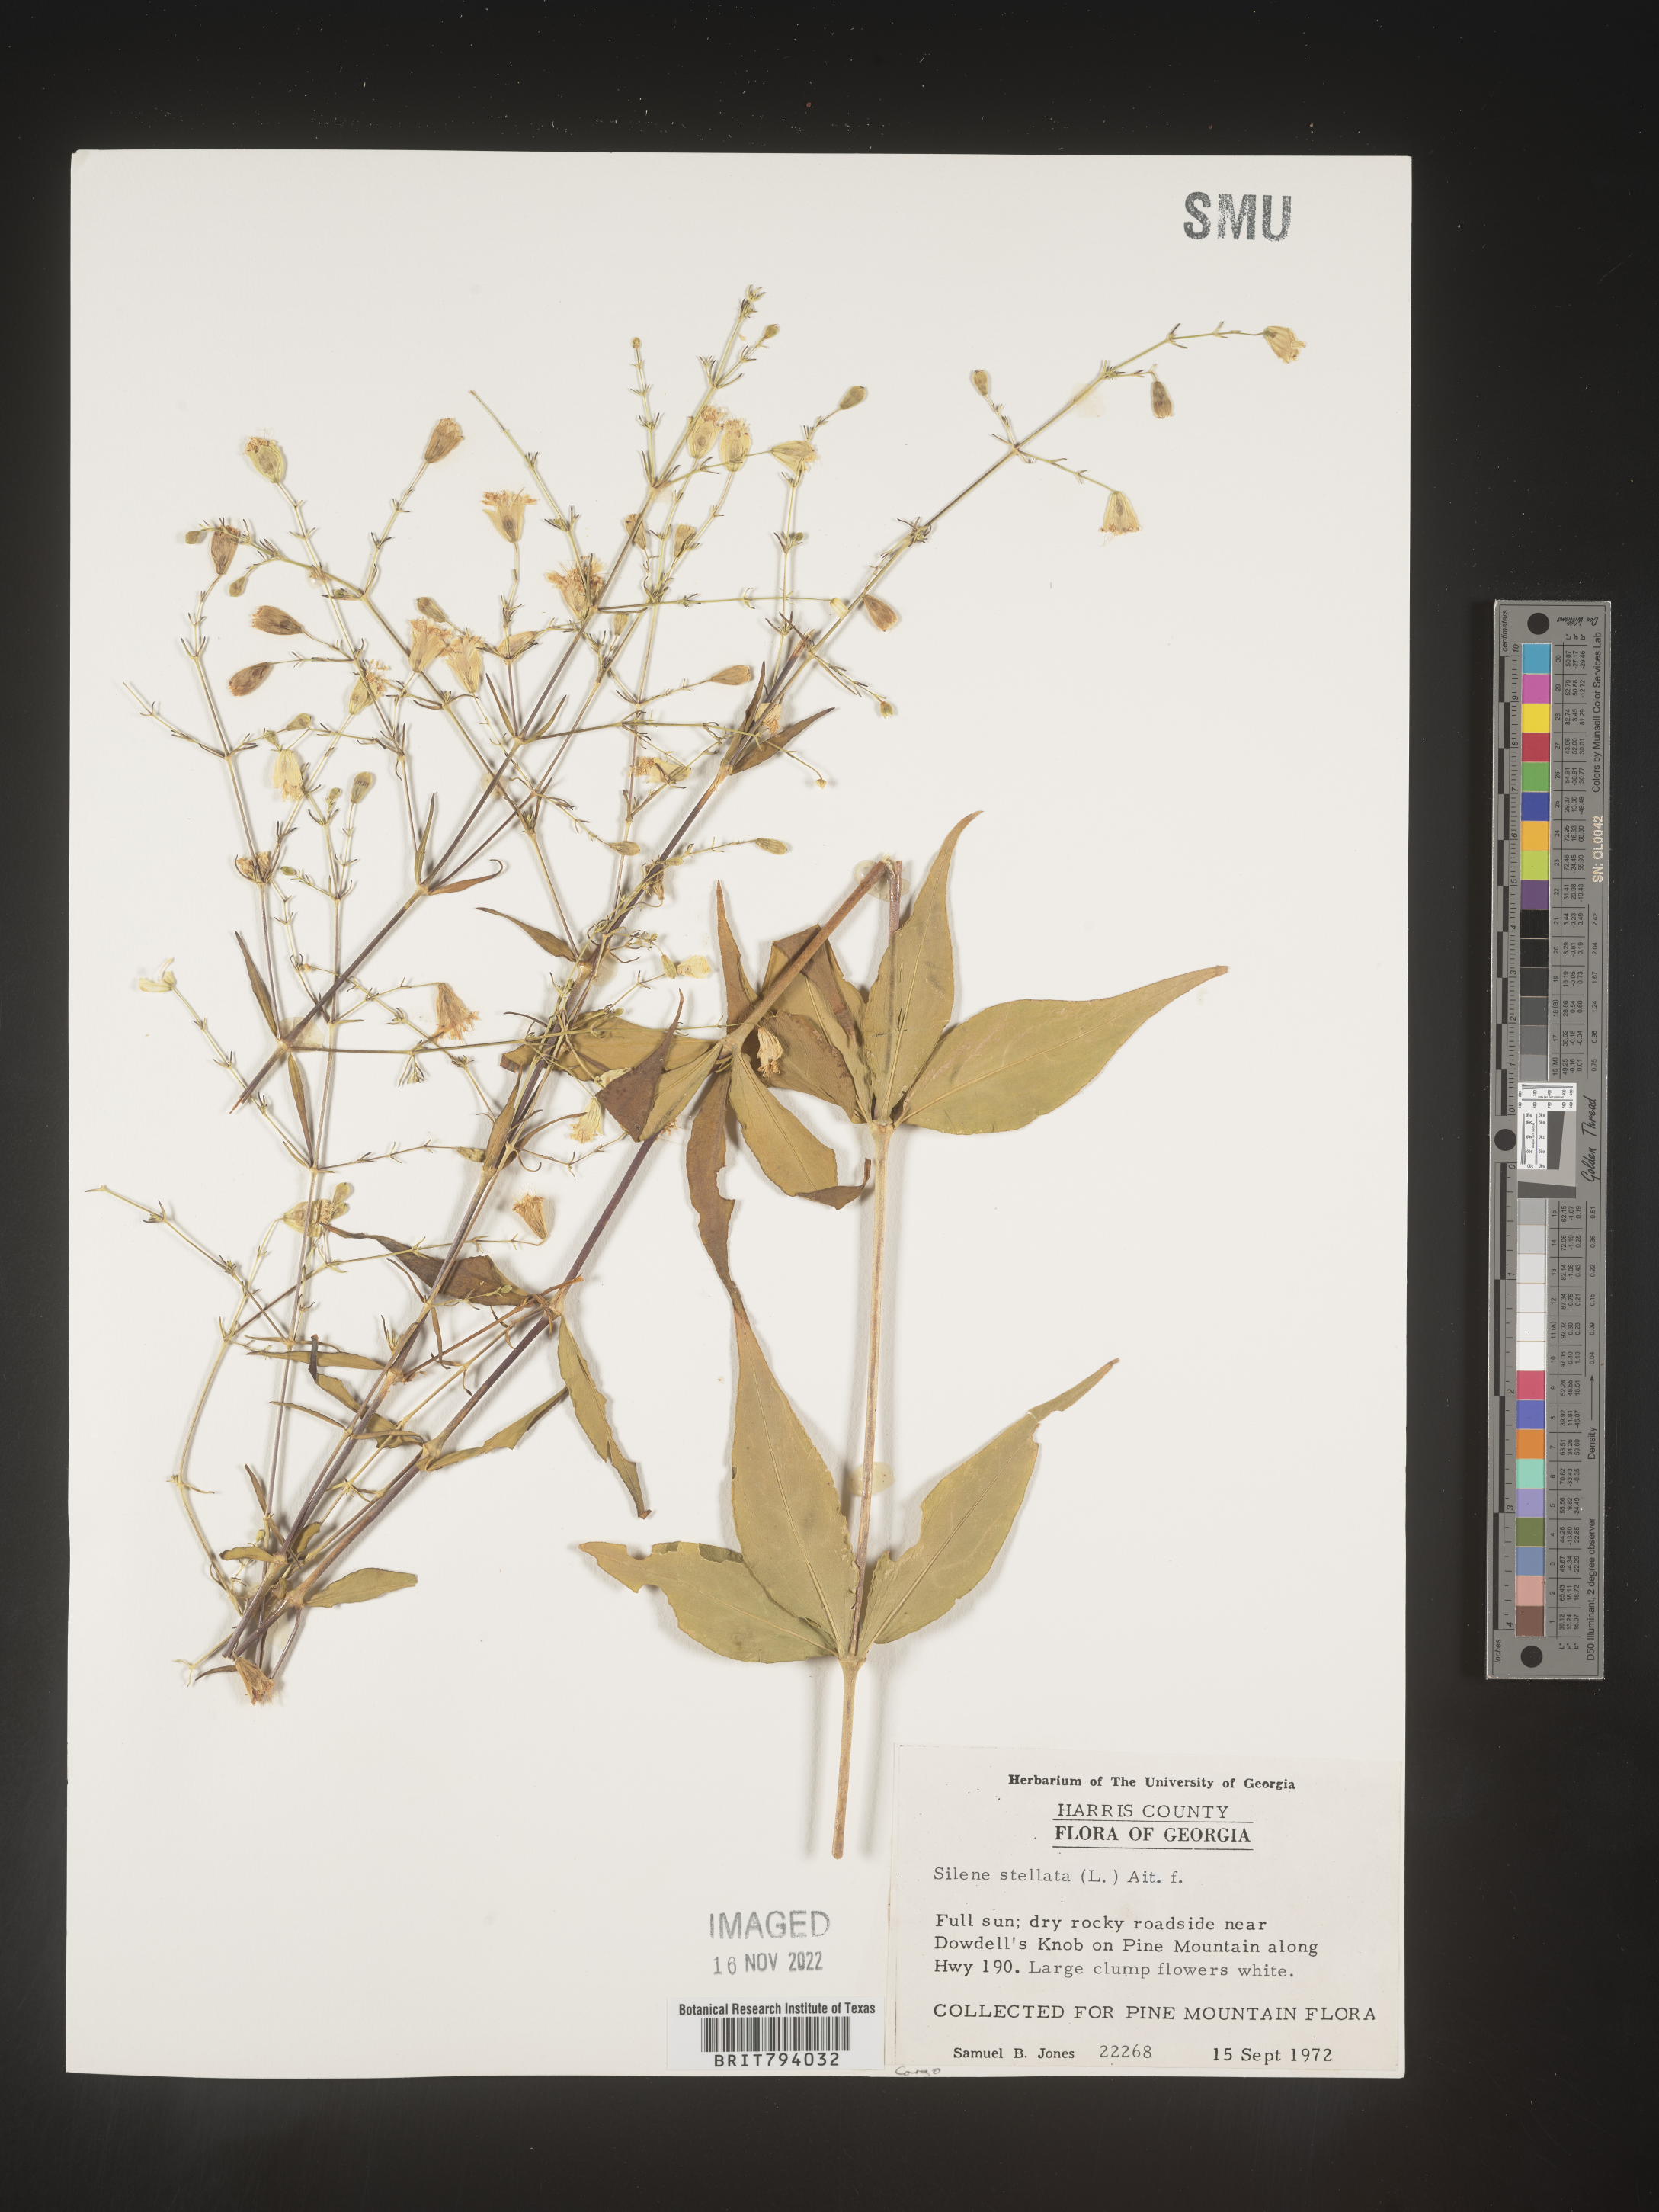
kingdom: Plantae
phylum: Tracheophyta
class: Magnoliopsida
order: Caryophyllales
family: Caryophyllaceae
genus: Silene
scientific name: Silene stellata
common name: Starry campion
